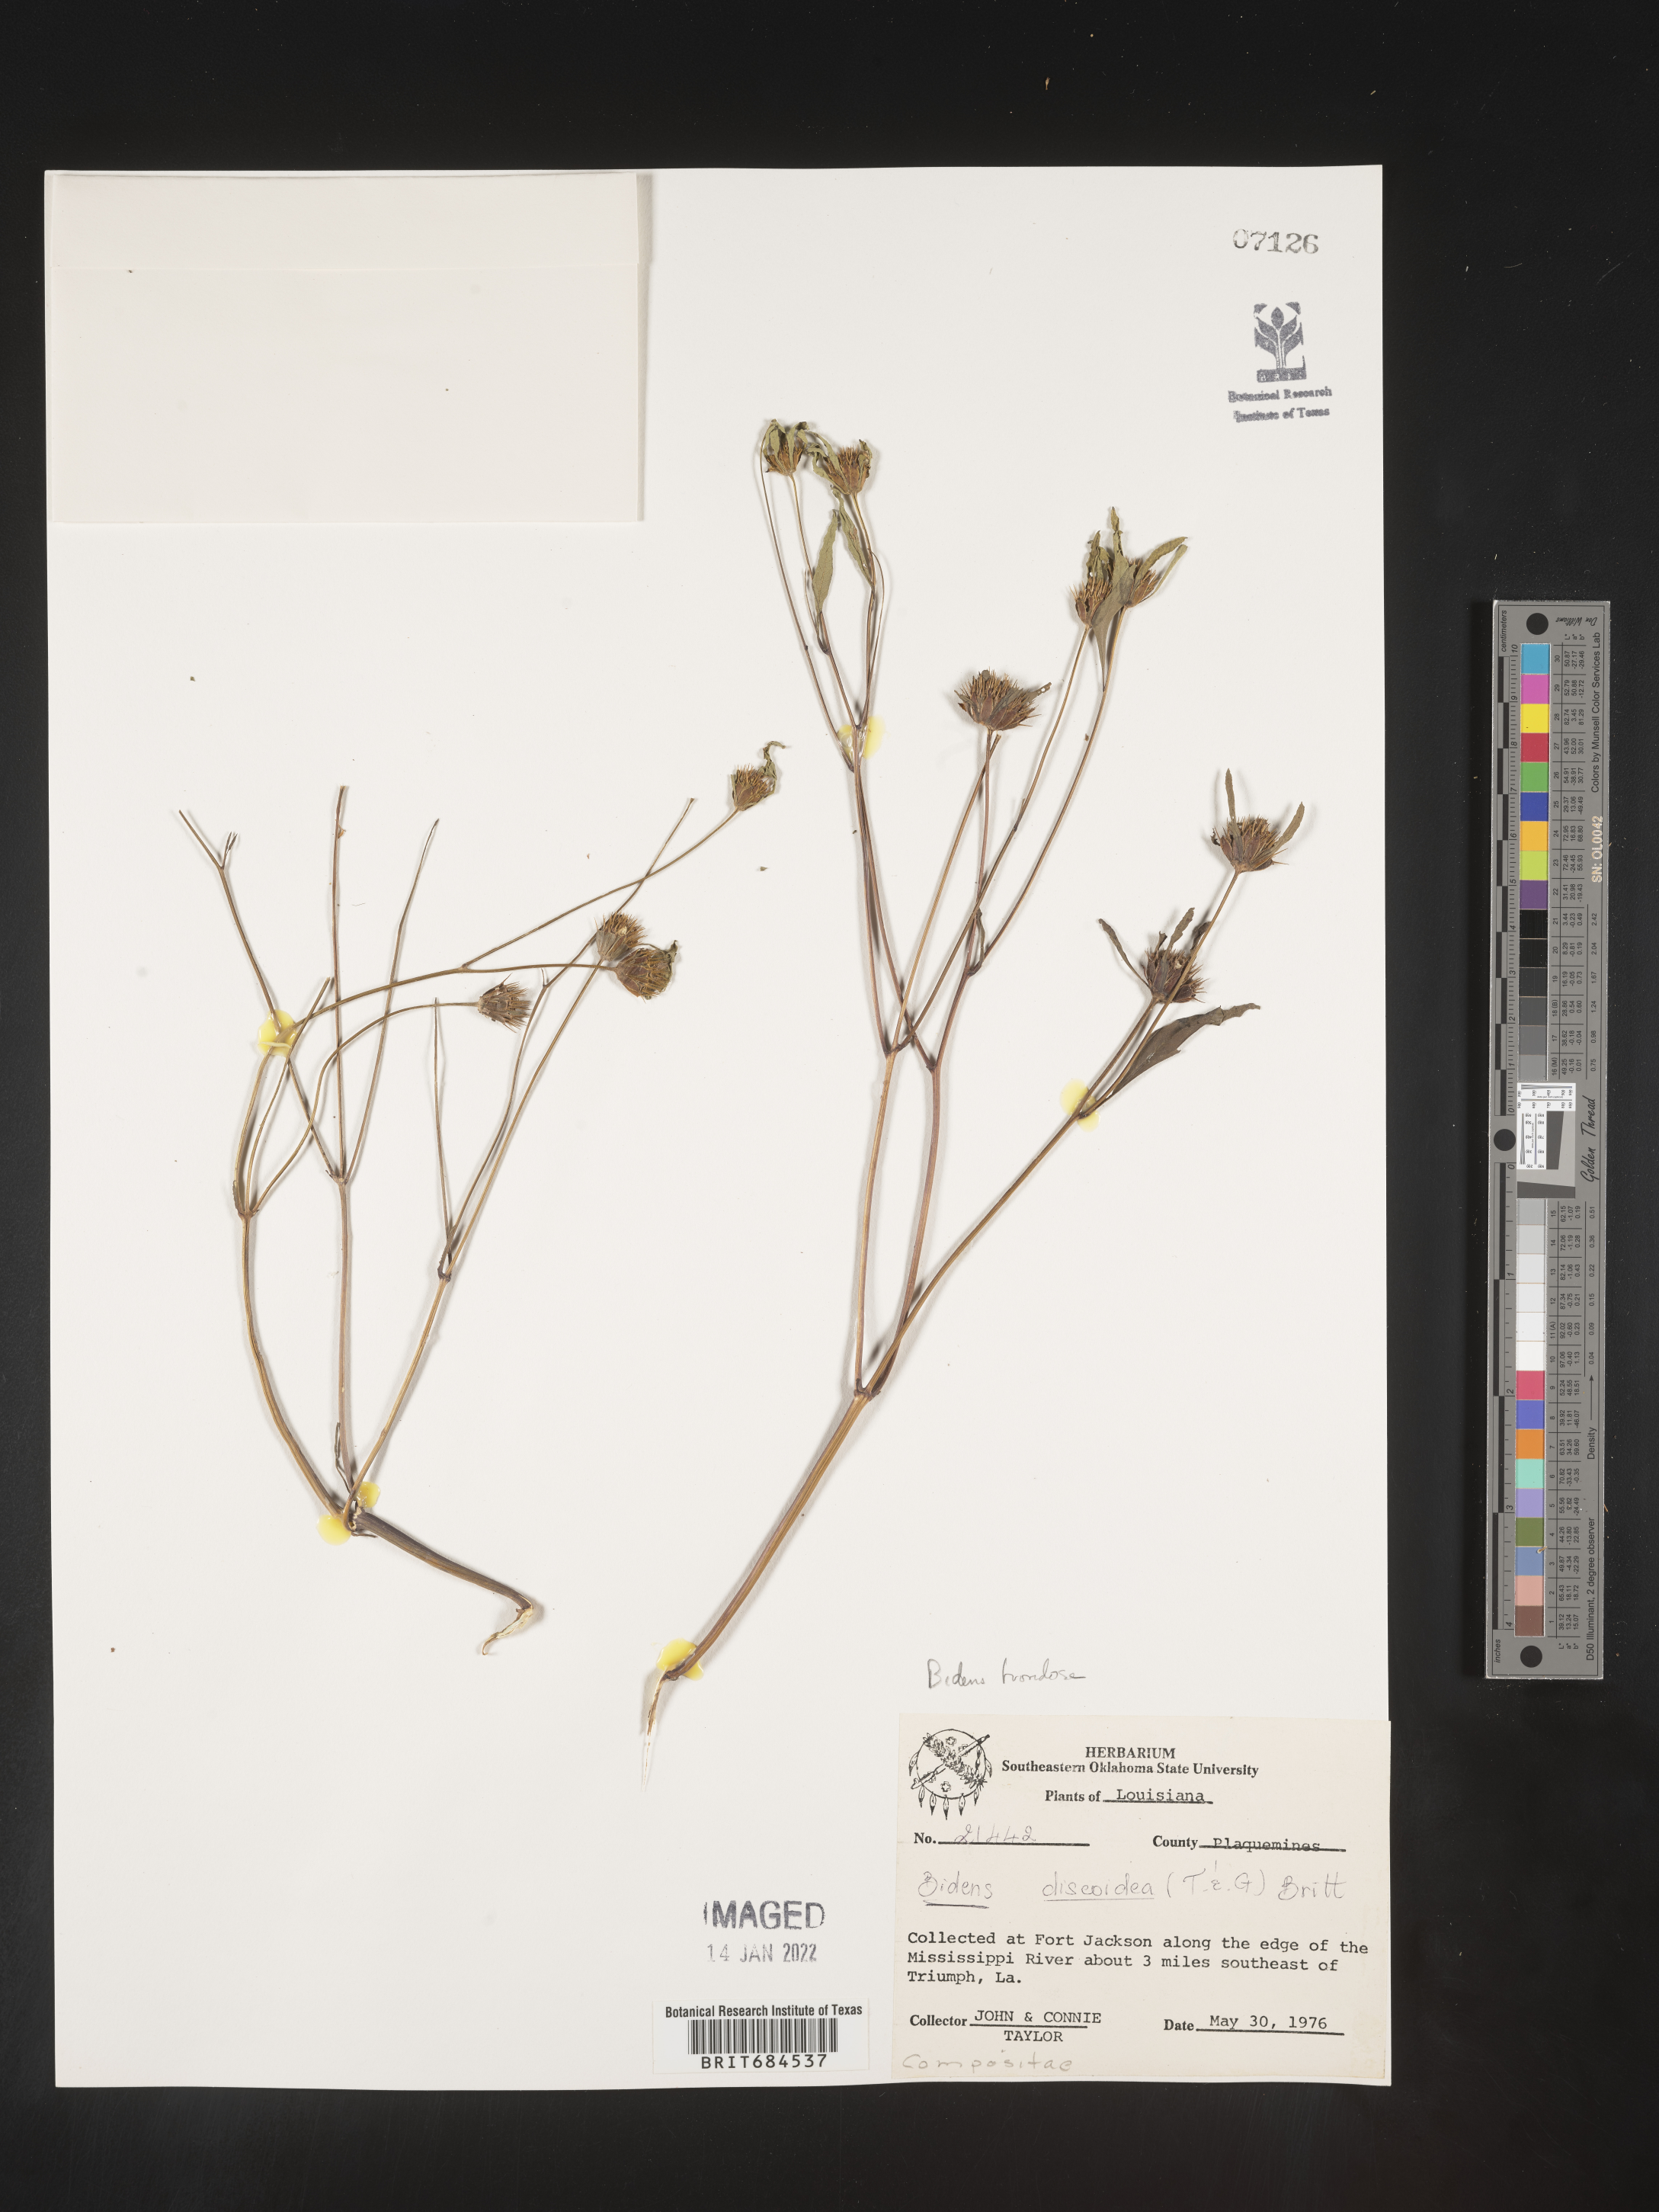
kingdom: Plantae
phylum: Tracheophyta
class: Magnoliopsida
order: Asterales
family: Asteraceae
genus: Bidens
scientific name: Bidens frondosa
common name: Beggarticks
